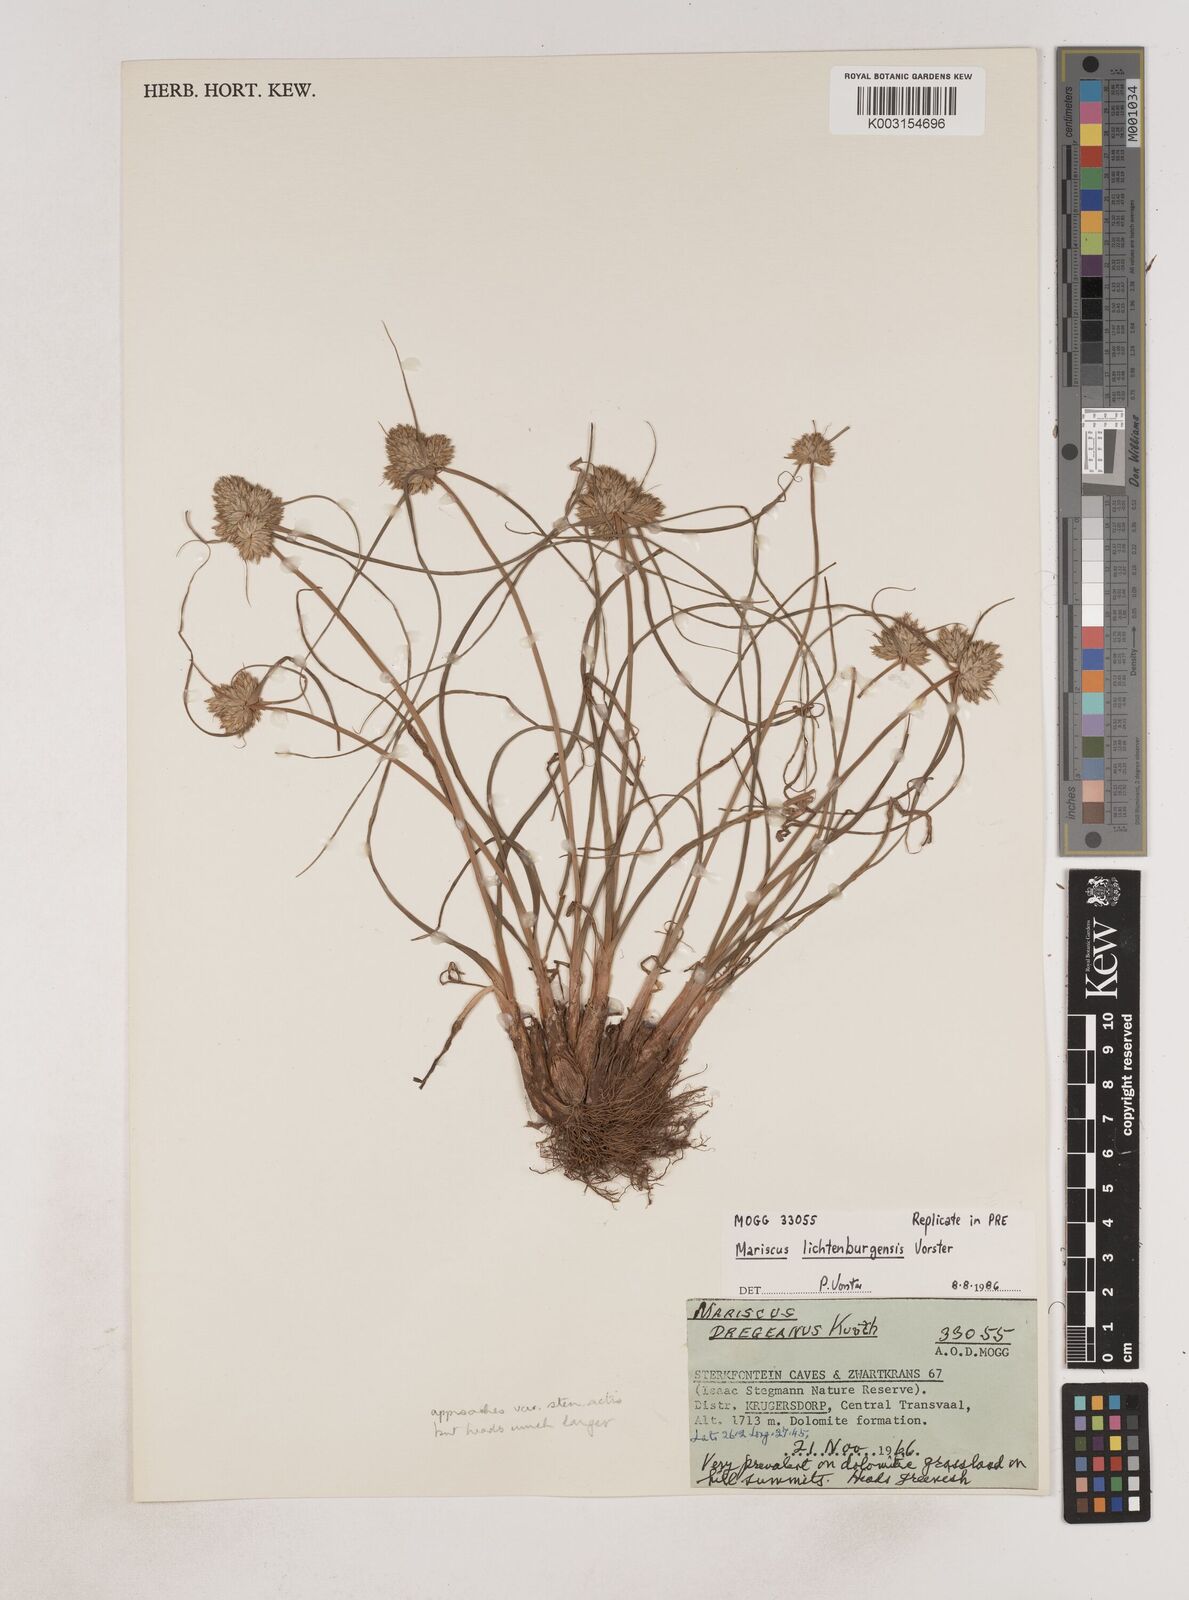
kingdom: Plantae
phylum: Tracheophyta
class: Liliopsida
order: Poales
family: Cyperaceae
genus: Cyperus
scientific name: Cyperus
